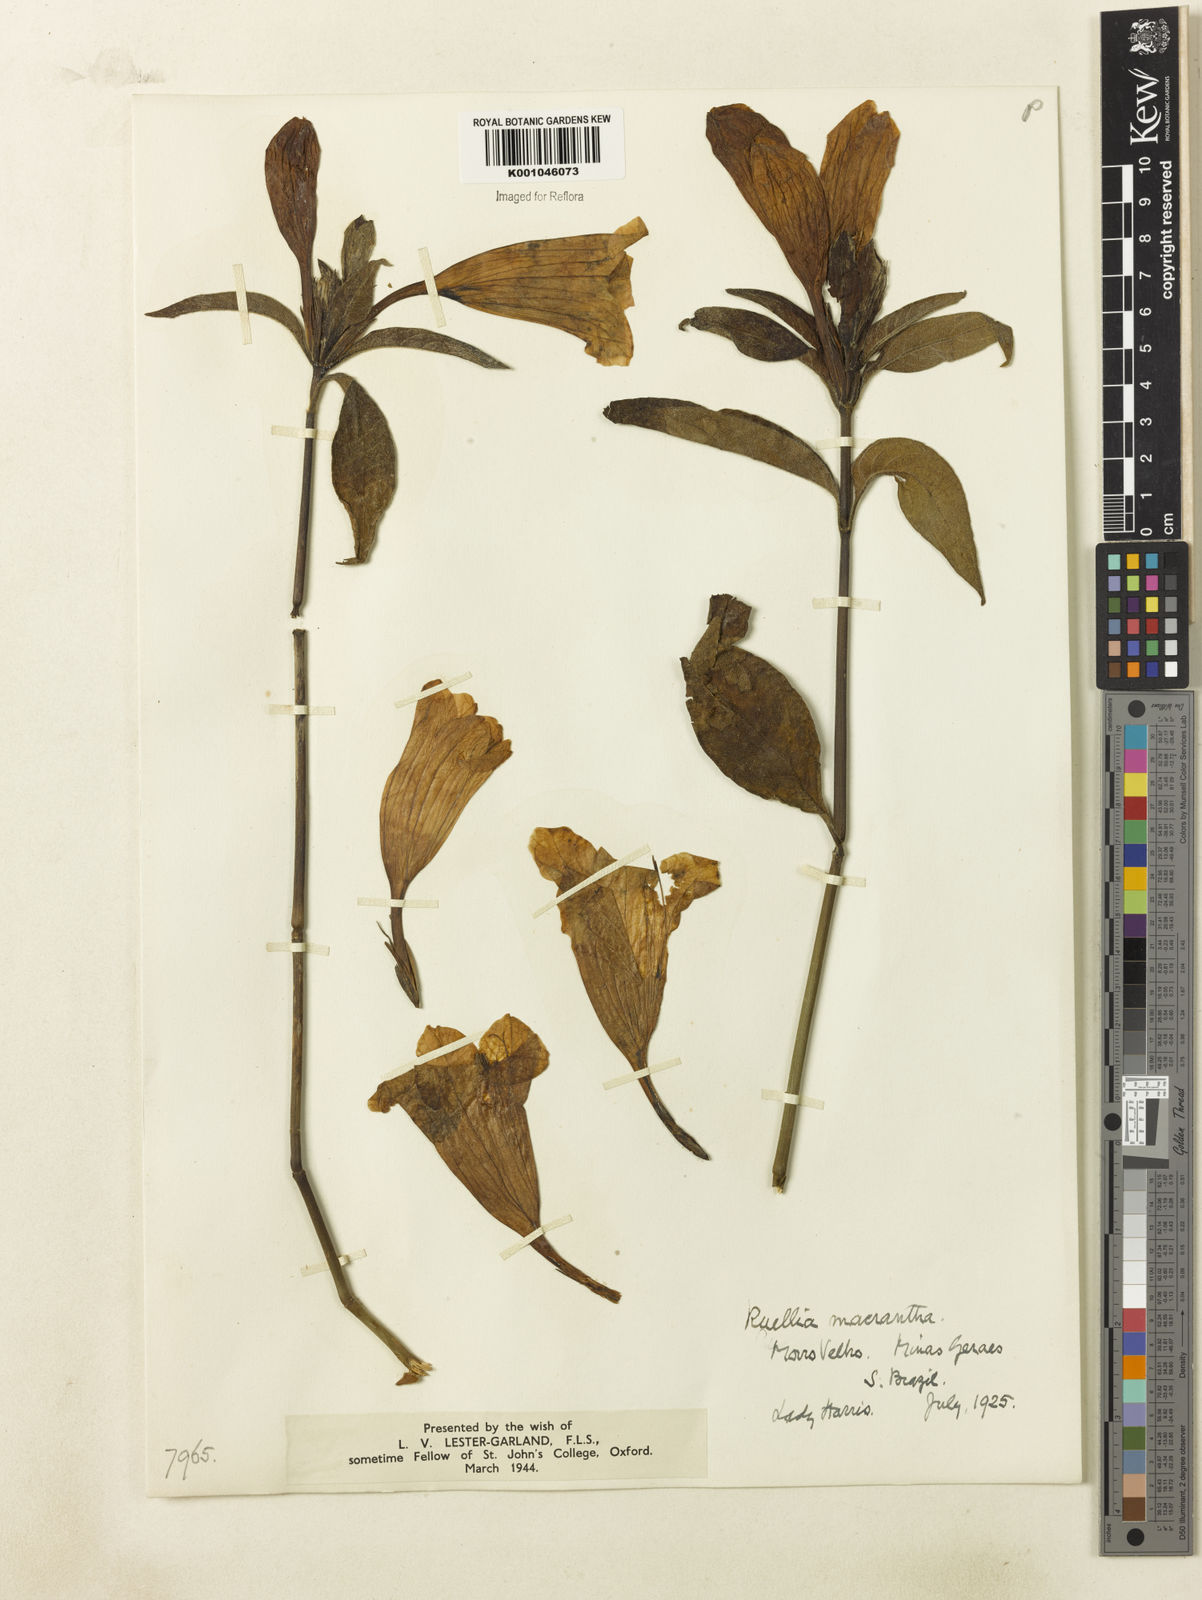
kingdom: Plantae
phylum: Tracheophyta
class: Magnoliopsida
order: Lamiales
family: Acanthaceae
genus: Ruellia
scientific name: Ruellia
